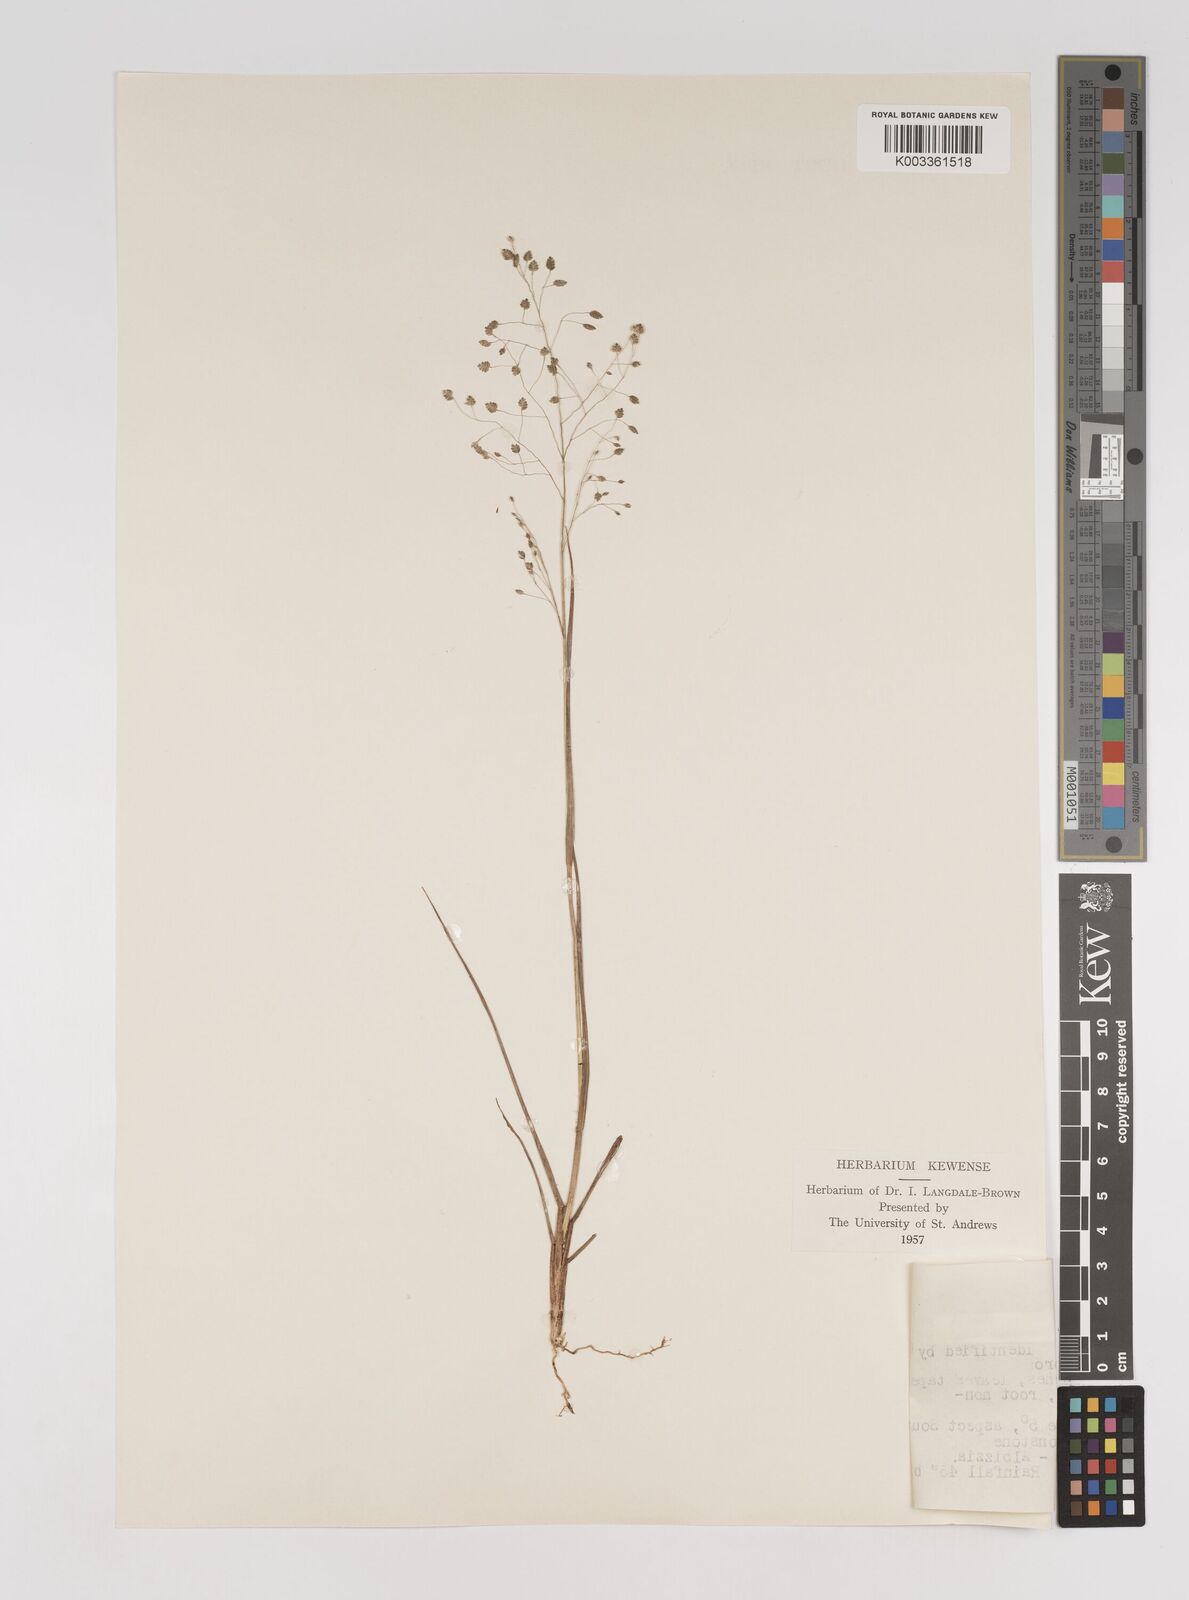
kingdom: Plantae
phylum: Tracheophyta
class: Liliopsida
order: Poales
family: Poaceae
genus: Eragrostis
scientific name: Eragrostis exasperata
